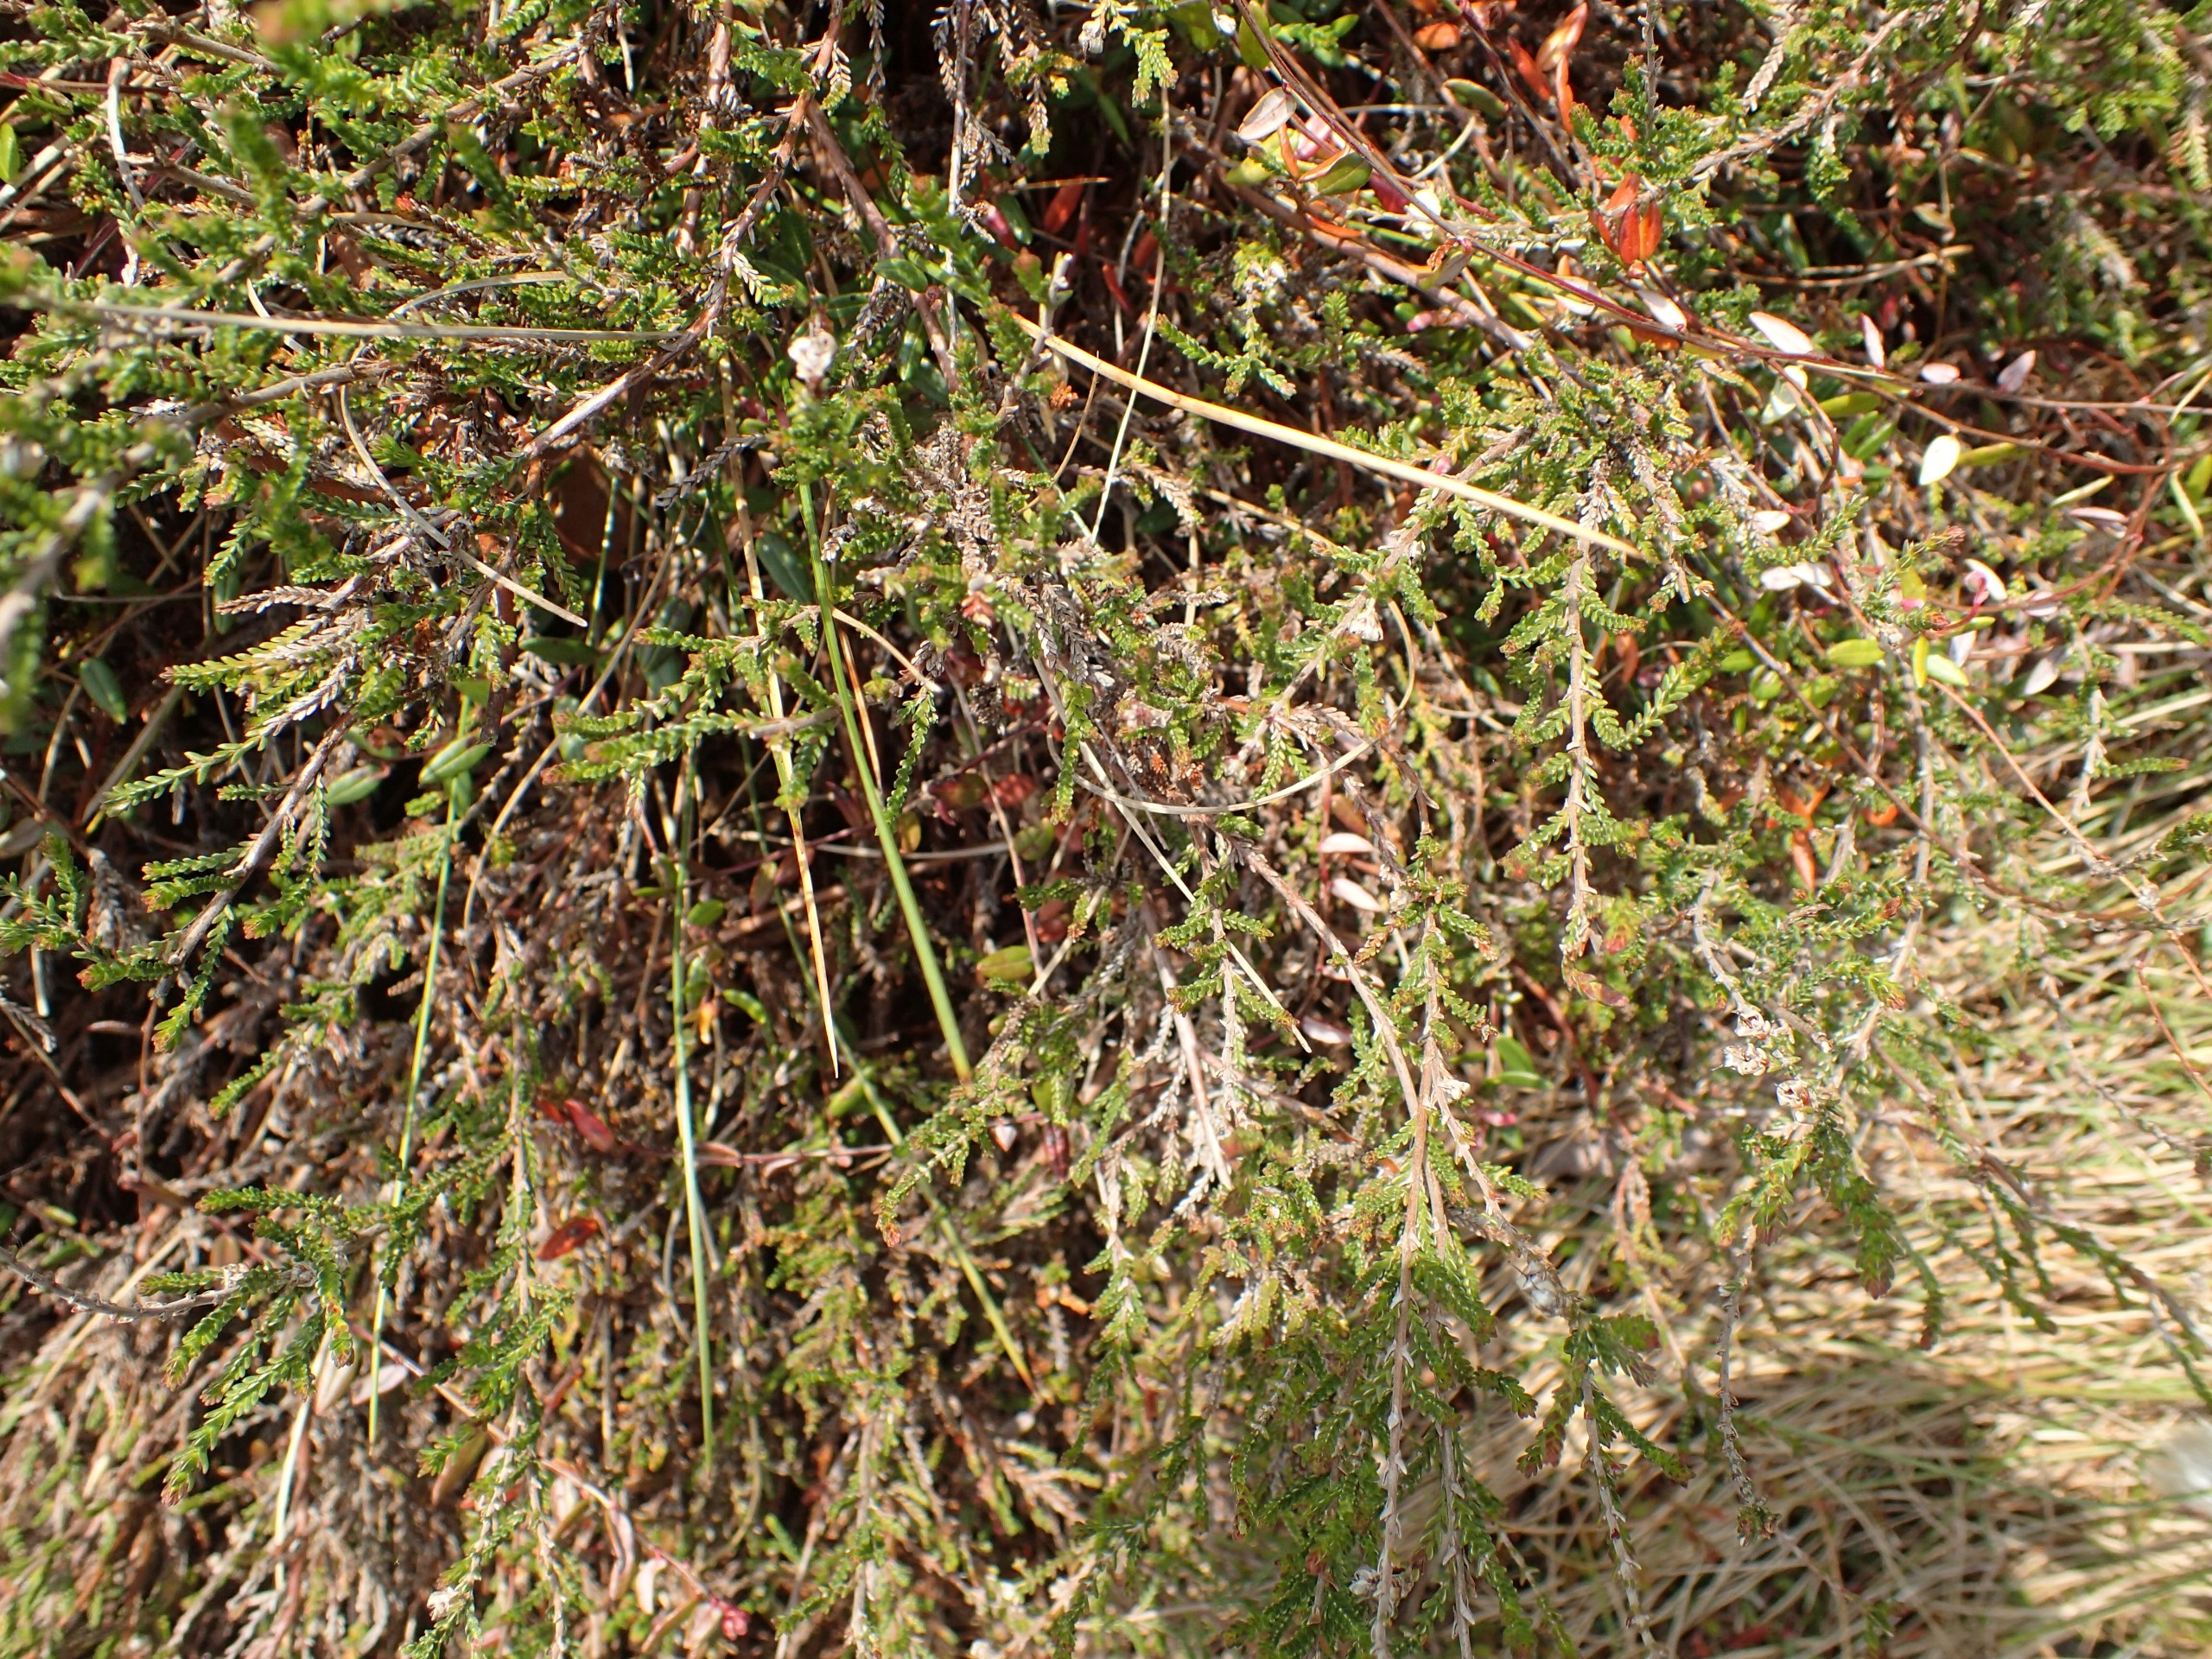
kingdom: Plantae
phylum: Tracheophyta
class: Magnoliopsida
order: Ericales
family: Ericaceae
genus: Calluna
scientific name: Calluna vulgaris
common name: Hedelyng
